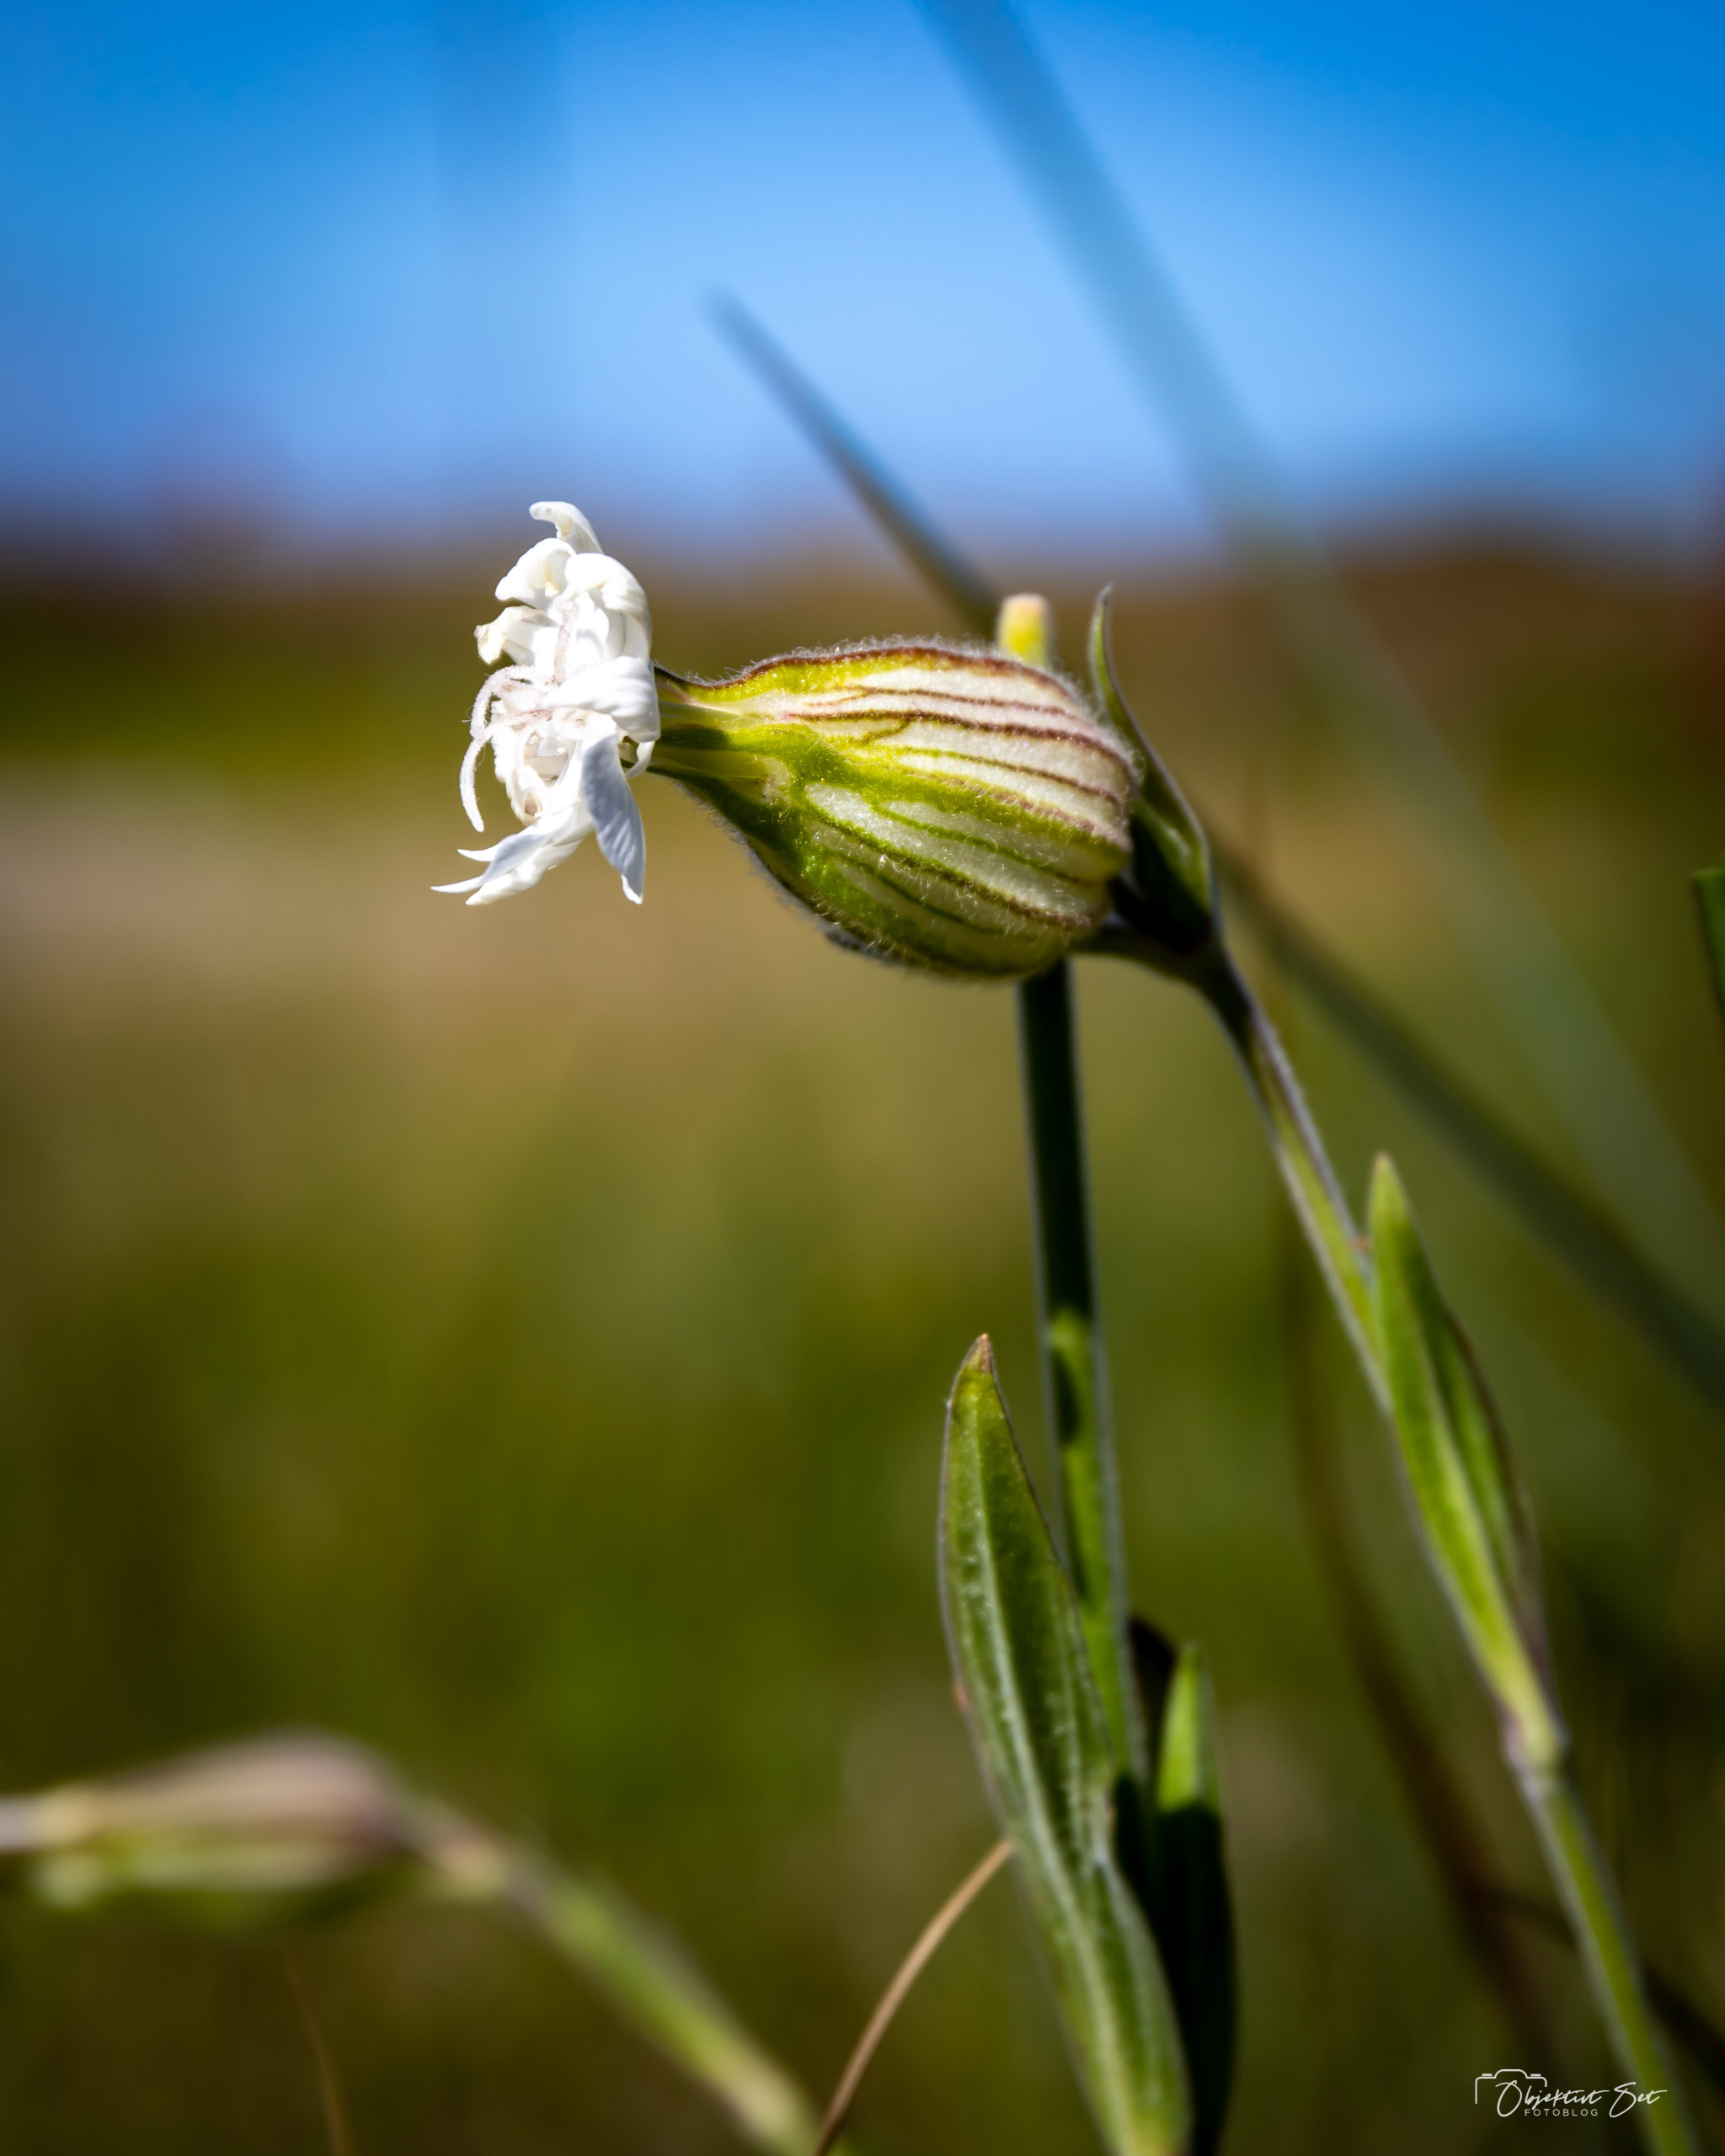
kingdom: Plantae
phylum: Tracheophyta
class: Magnoliopsida
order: Caryophyllales
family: Caryophyllaceae
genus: Silene
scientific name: Silene latifolia
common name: Aftenpragtstjerne
